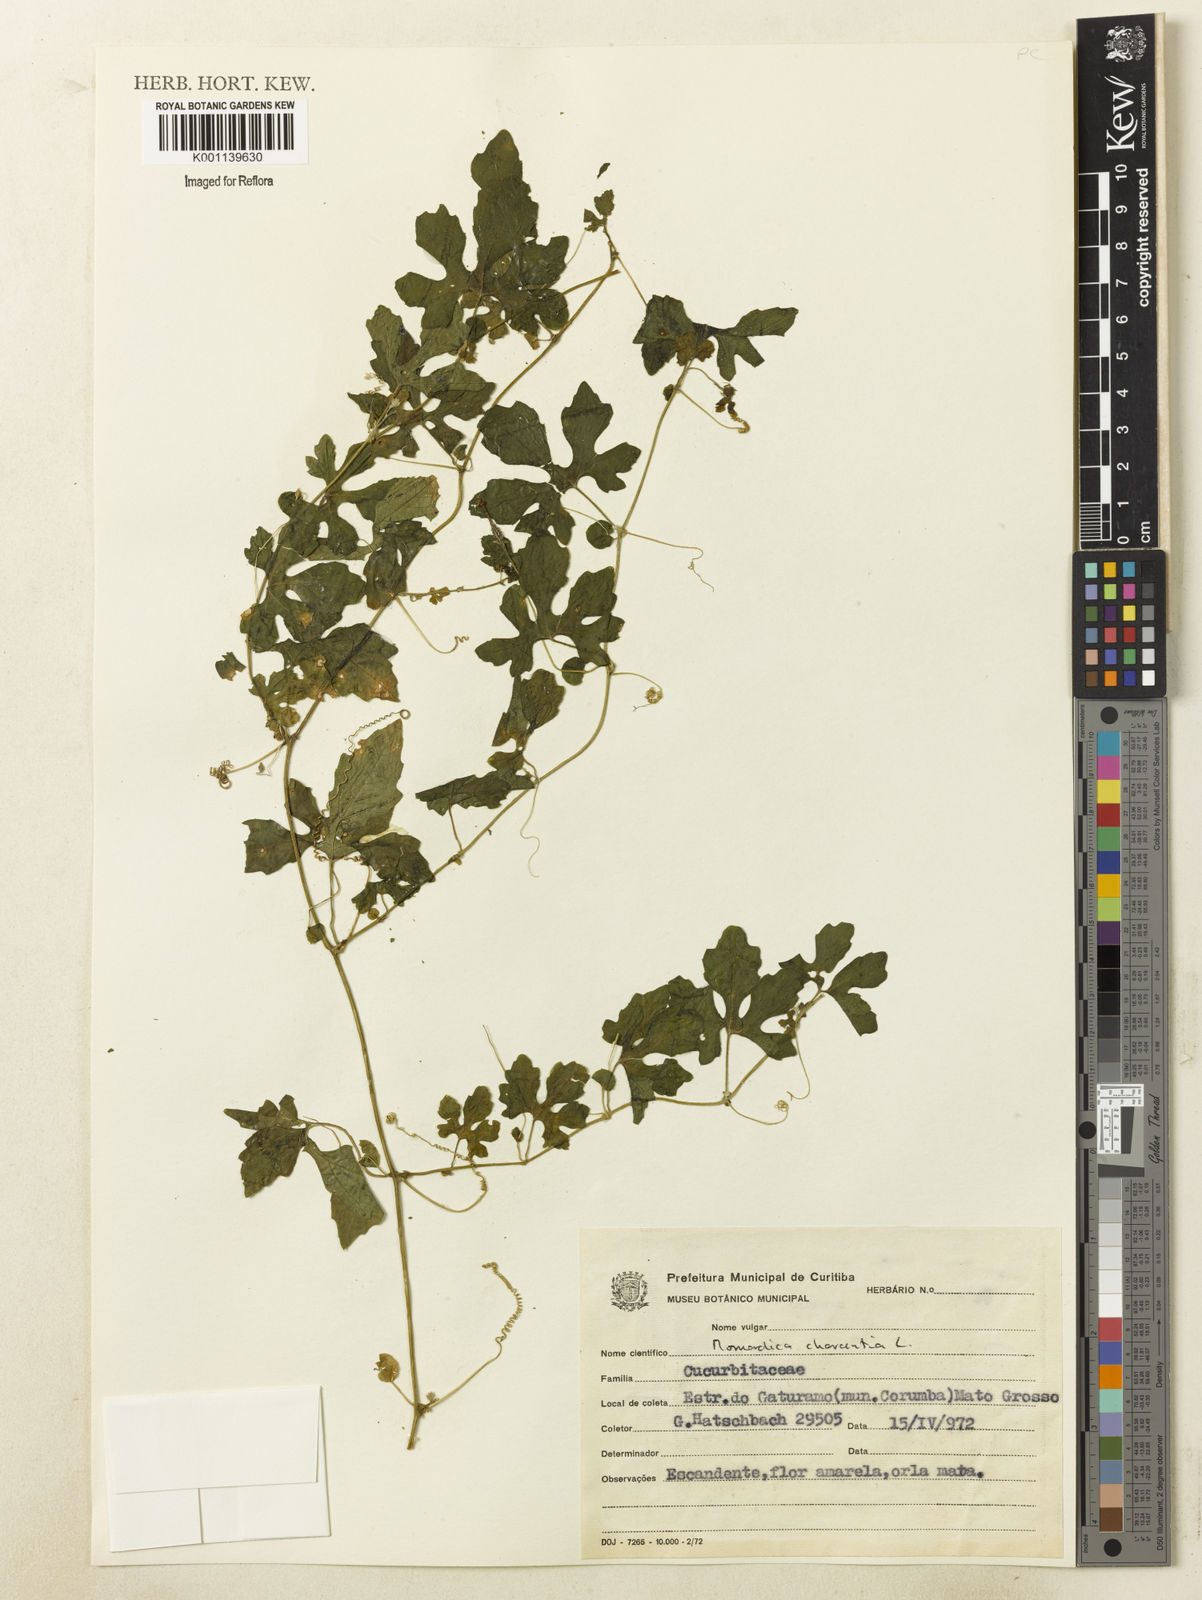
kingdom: Plantae
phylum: Tracheophyta
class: Magnoliopsida
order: Cucurbitales
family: Cucurbitaceae
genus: Momordica
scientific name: Momordica charantia
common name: Balsampear
